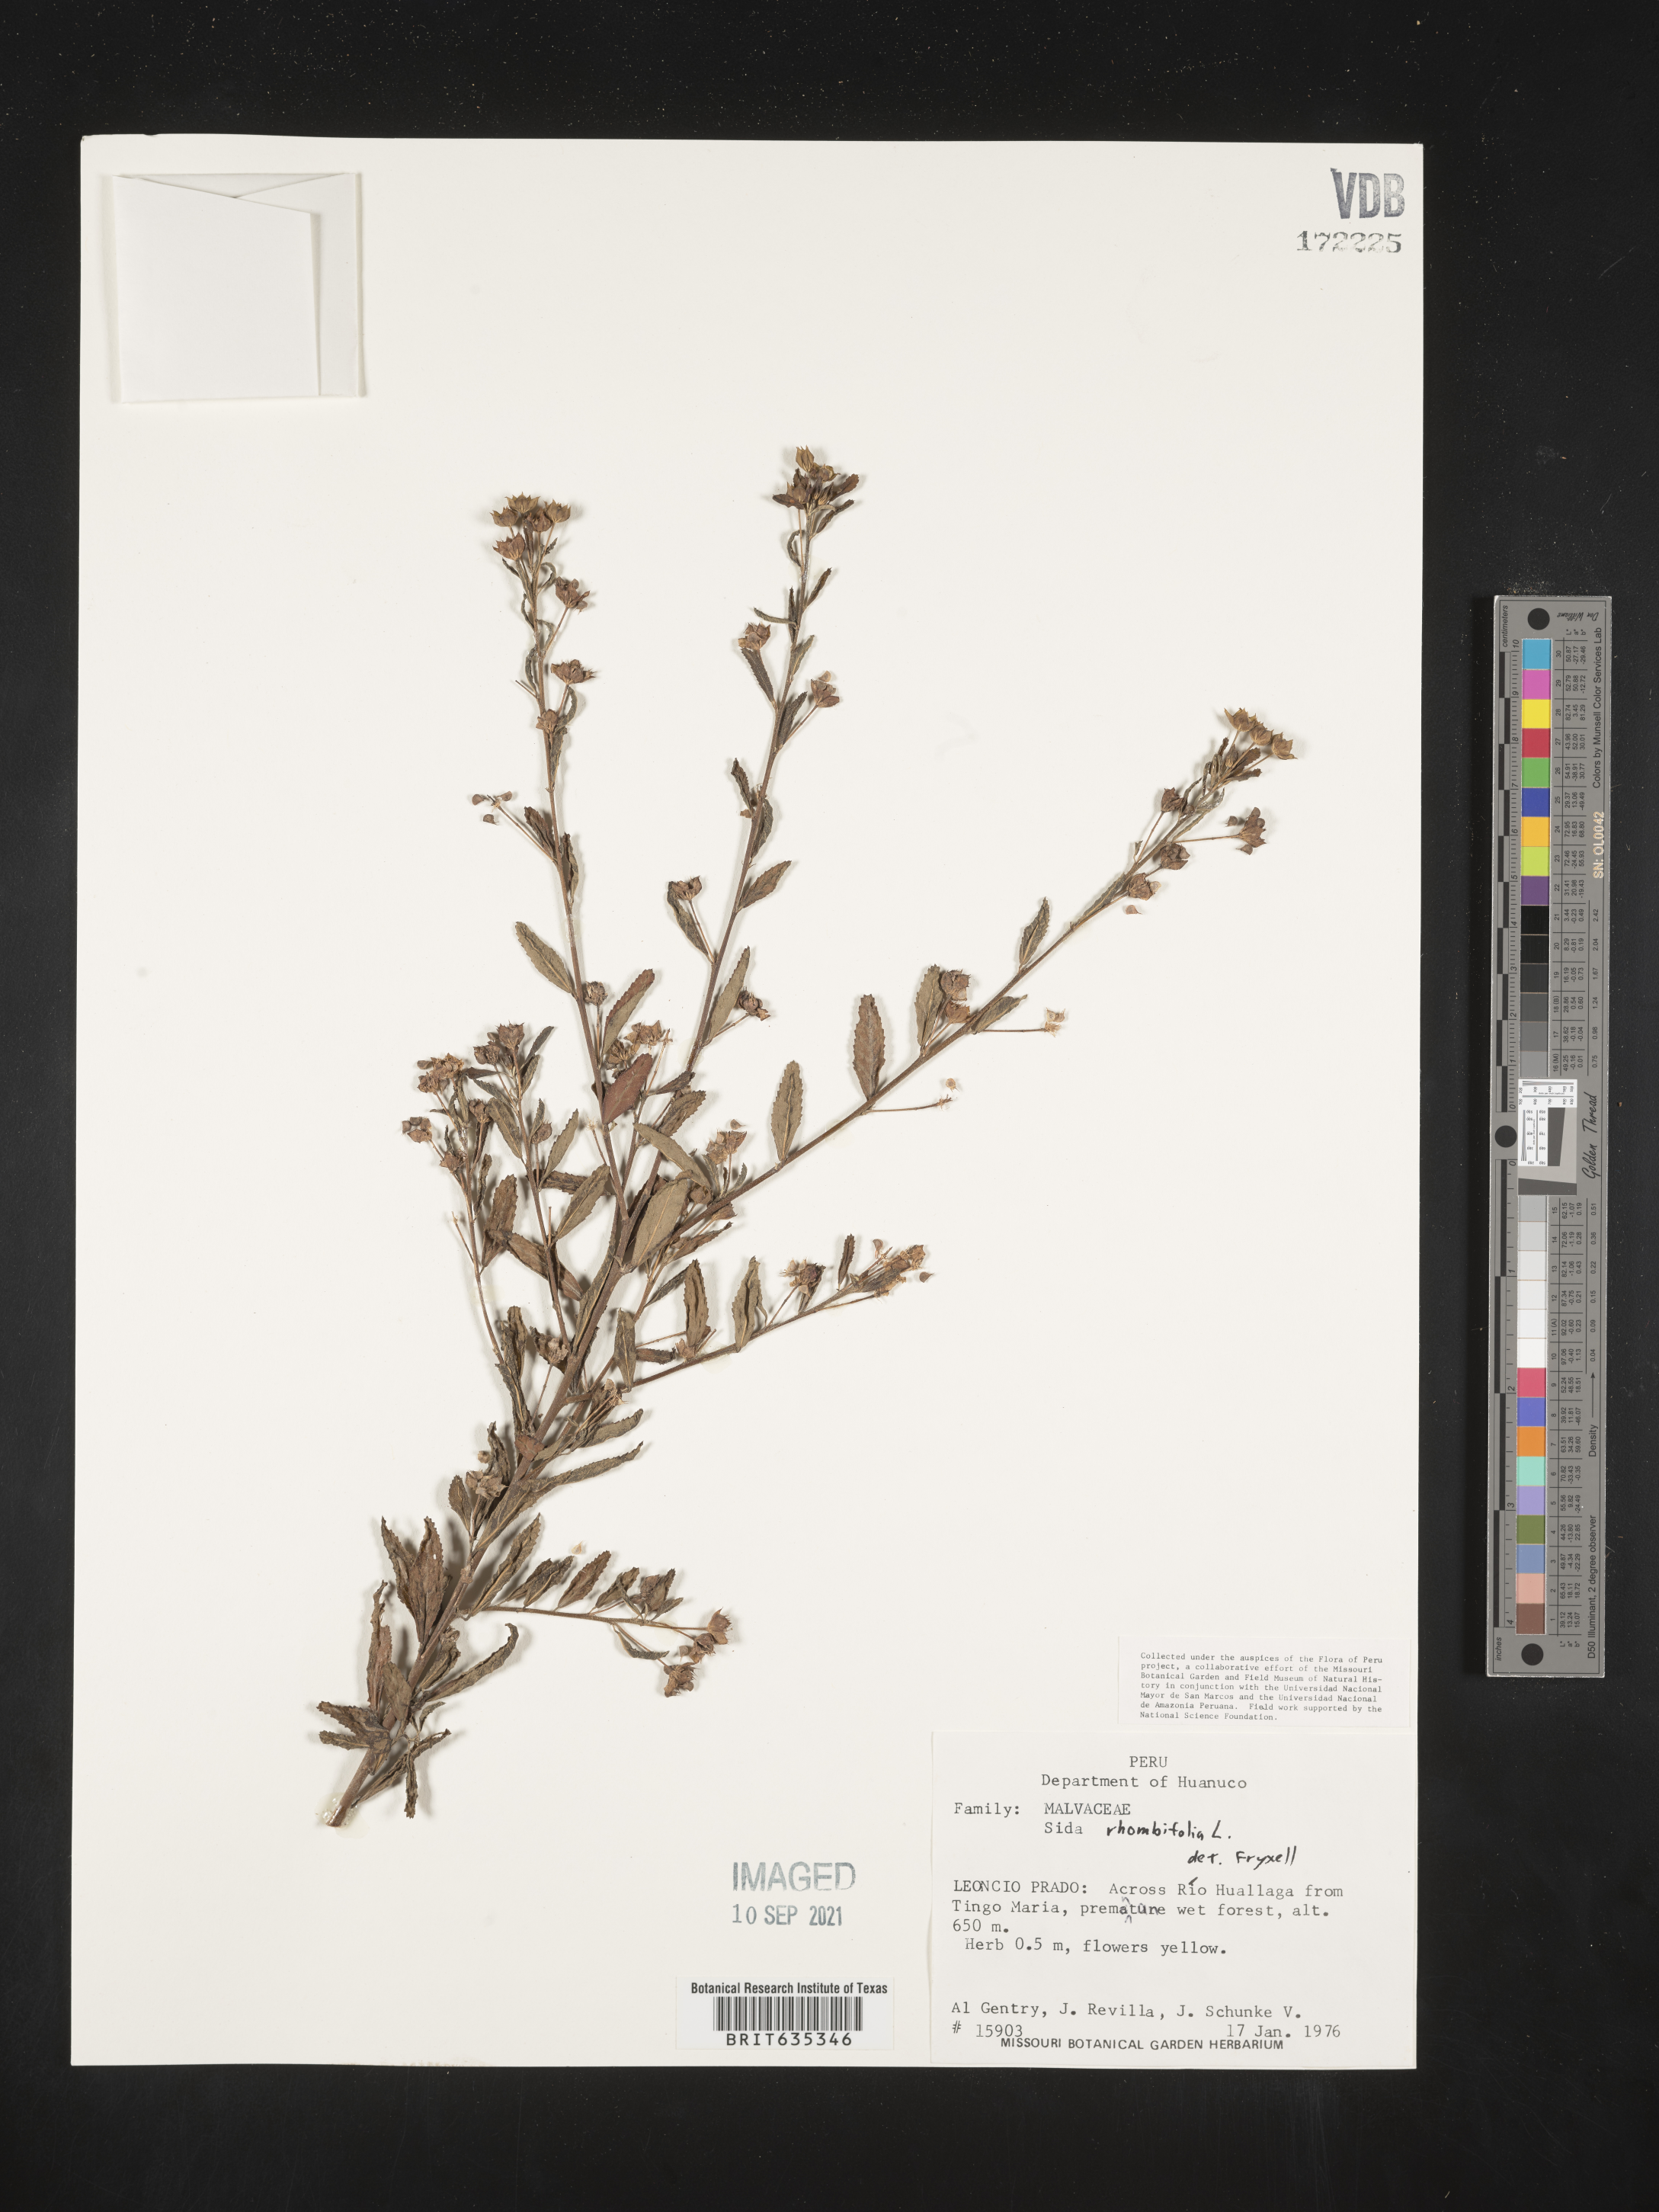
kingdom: Plantae
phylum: Tracheophyta
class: Magnoliopsida
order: Malvales
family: Malvaceae
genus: Sida
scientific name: Sida
